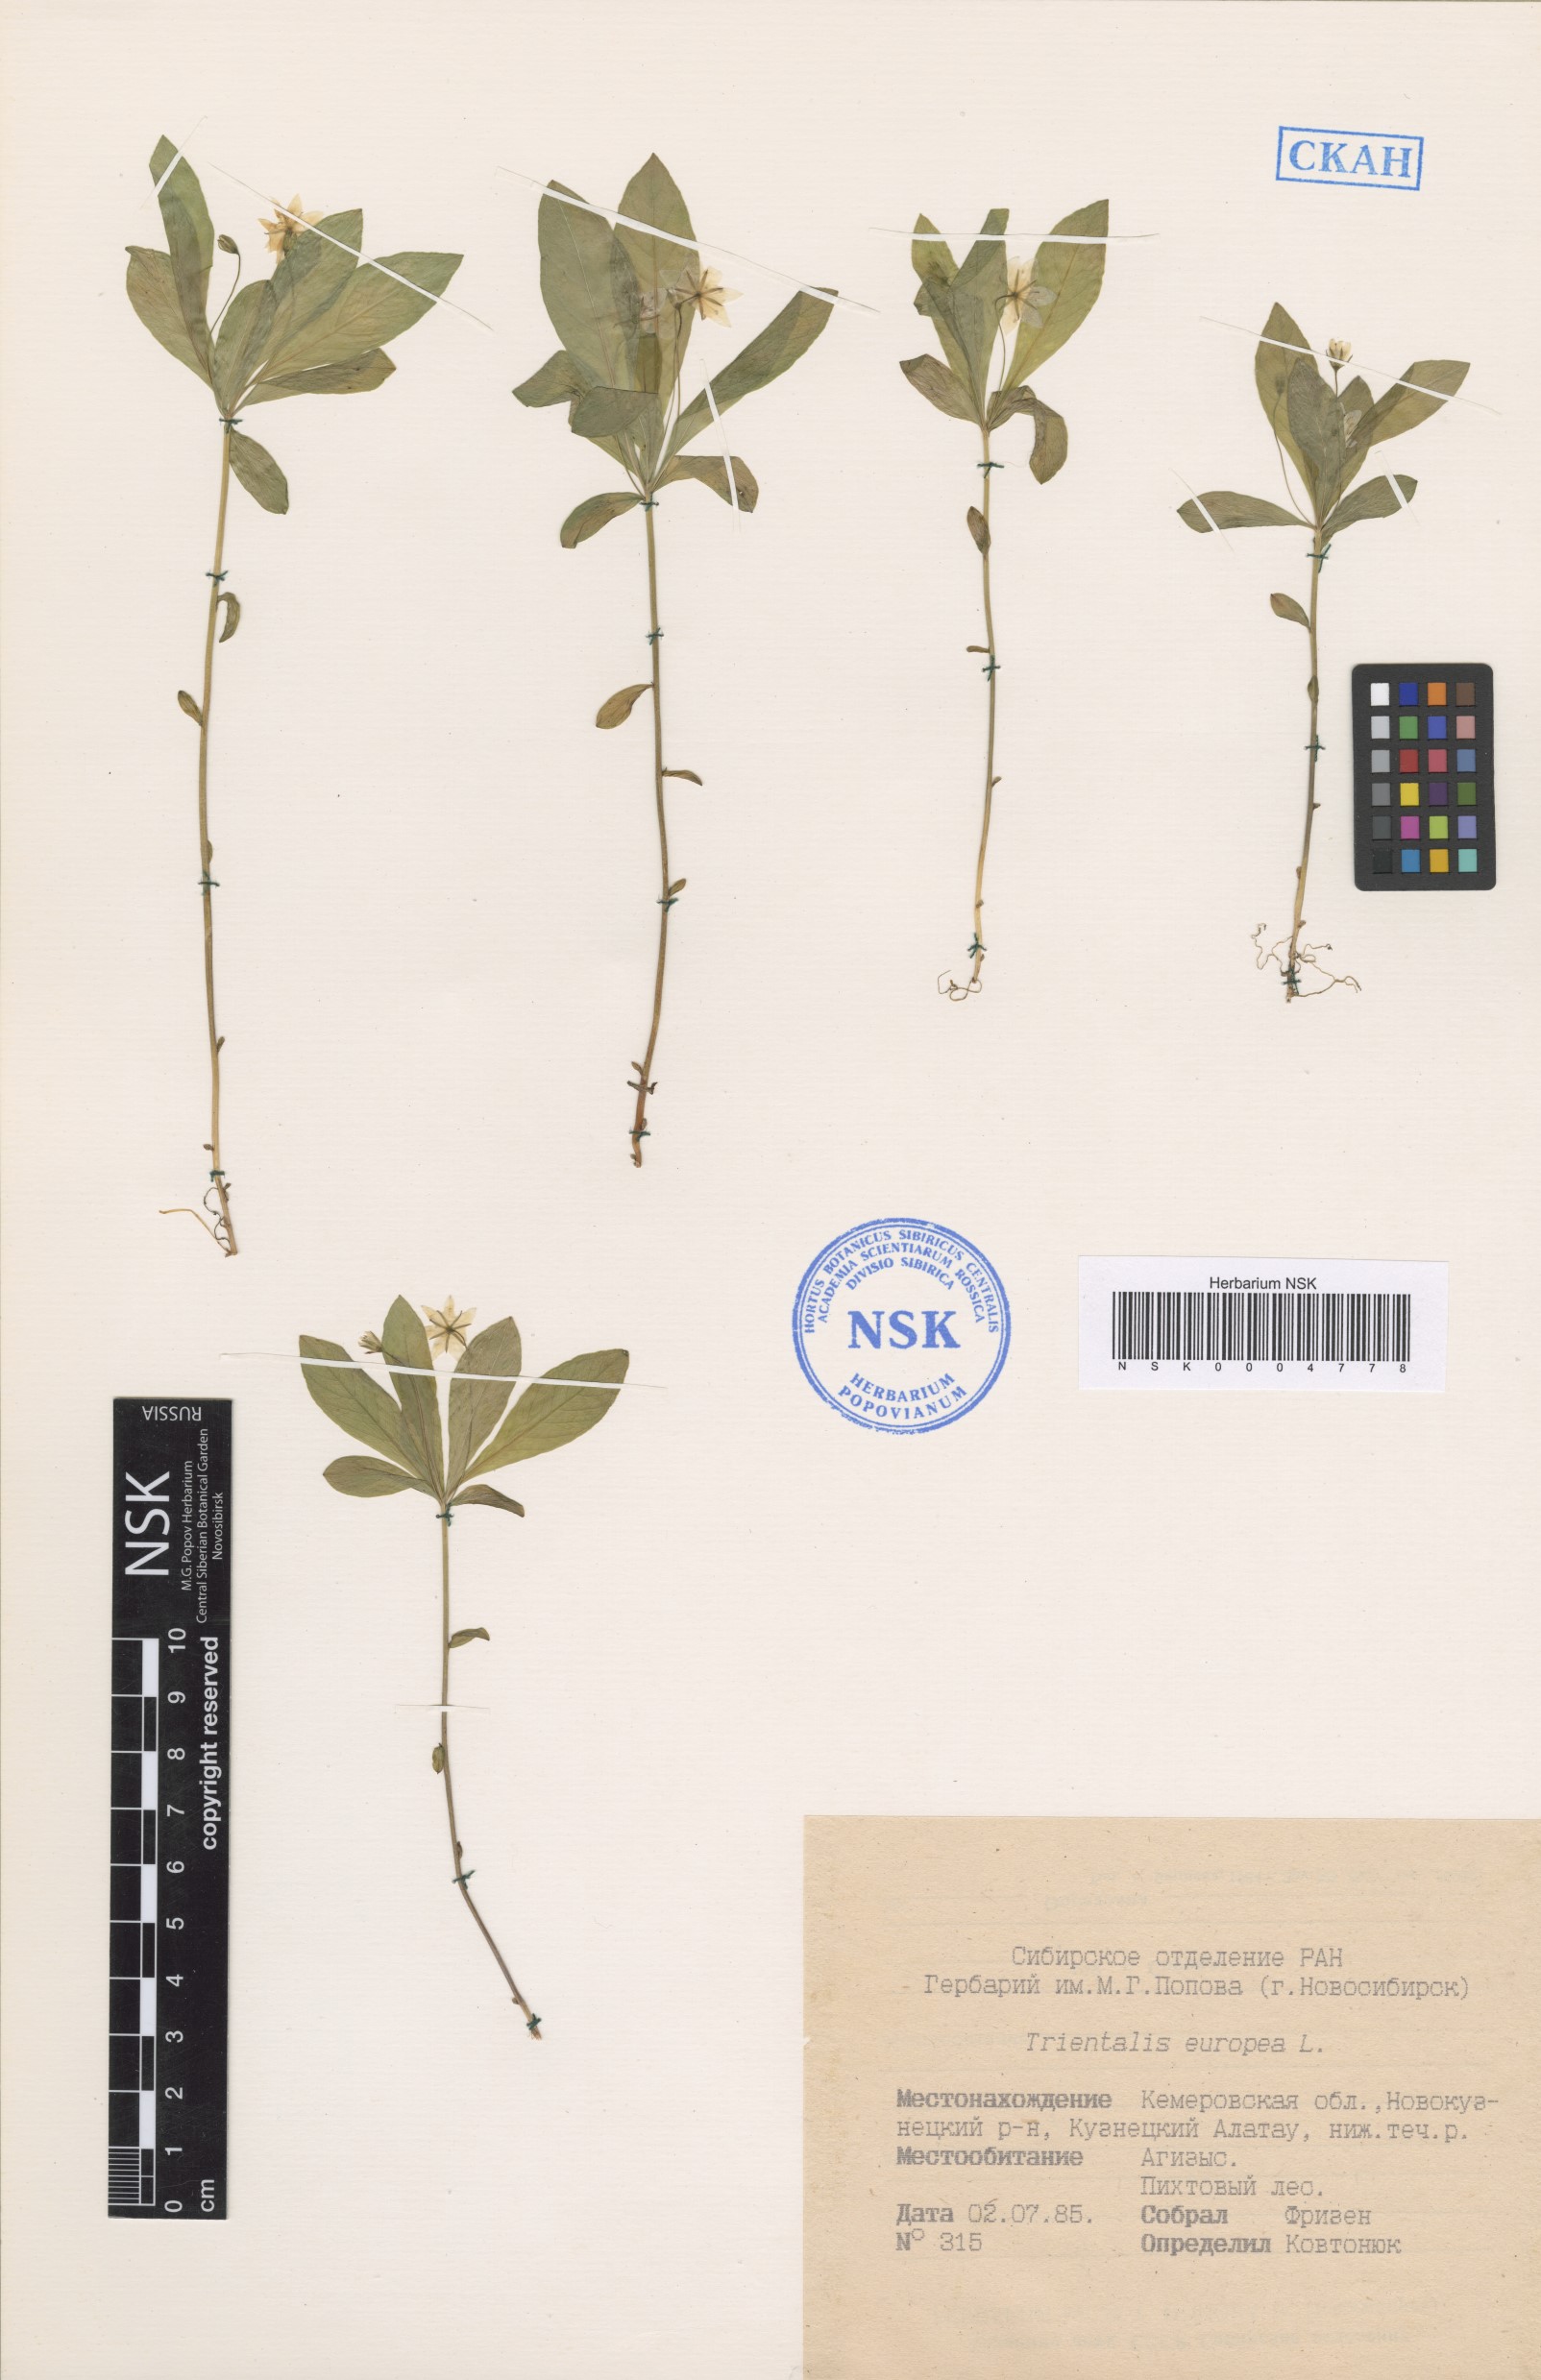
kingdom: Plantae
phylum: Tracheophyta
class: Magnoliopsida
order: Ericales
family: Primulaceae
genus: Lysimachia
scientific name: Lysimachia europaea
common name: Arctic starflower
